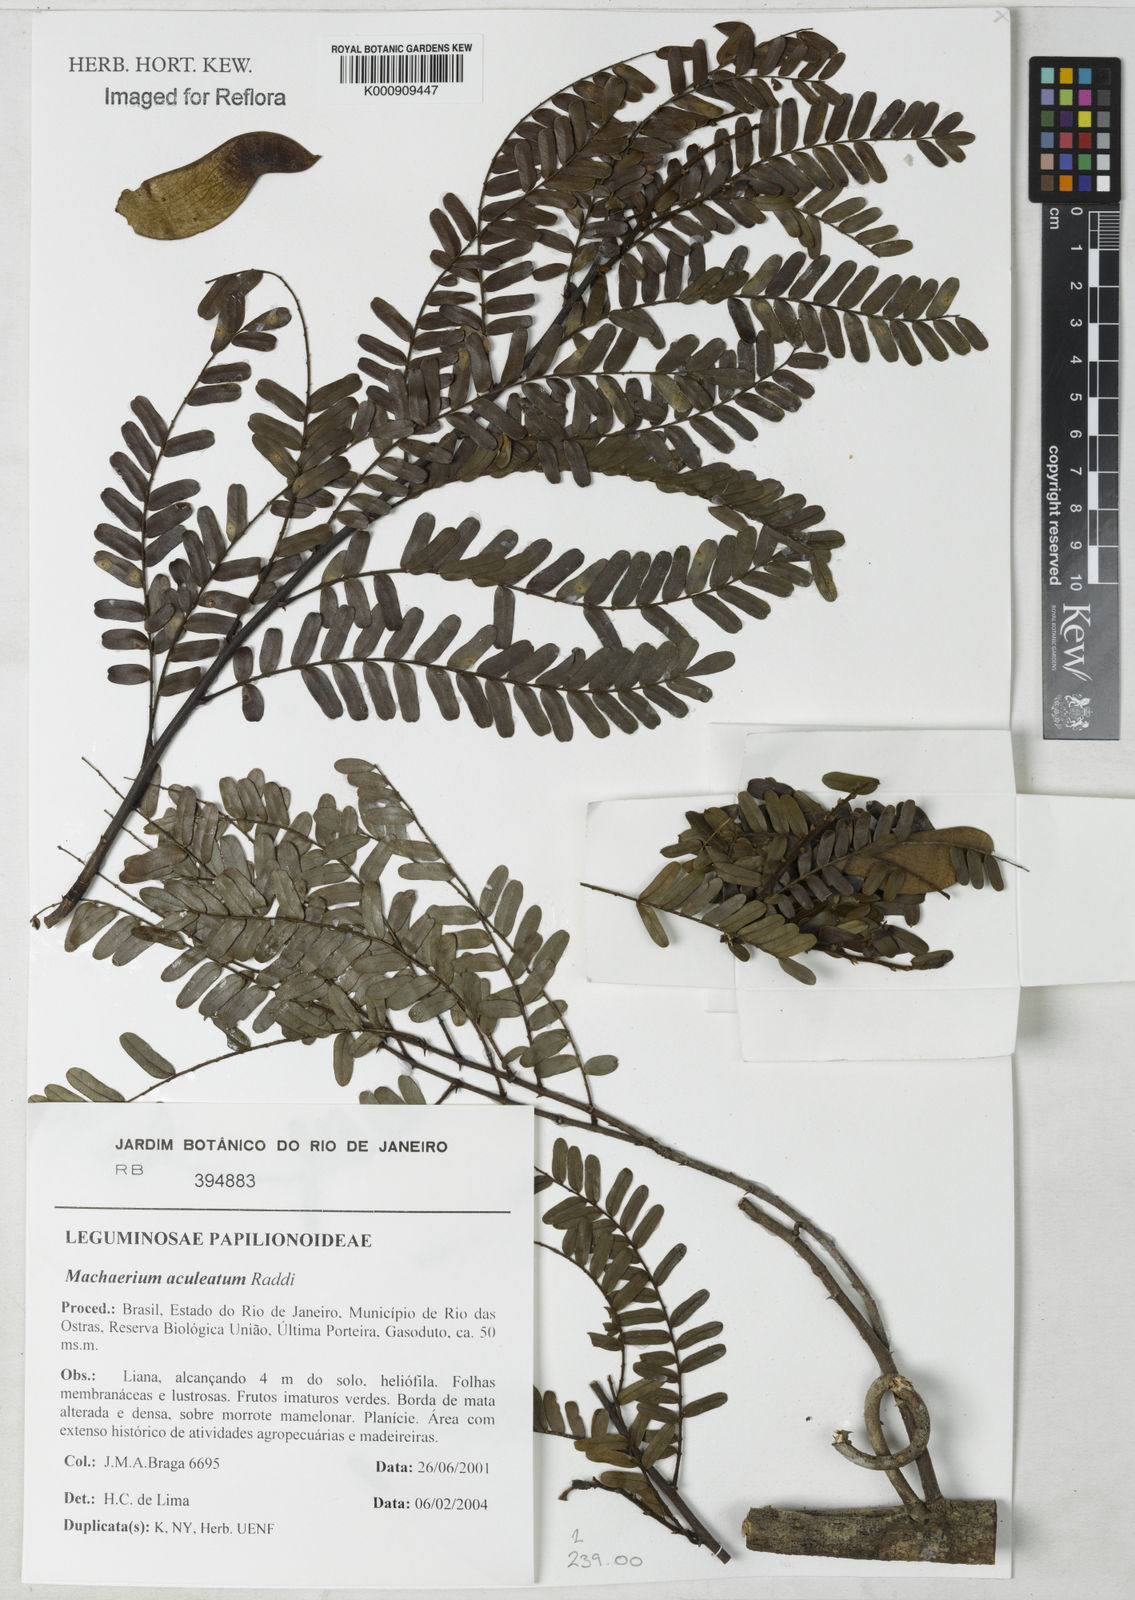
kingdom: Plantae
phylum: Tracheophyta
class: Magnoliopsida
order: Fabales
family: Fabaceae
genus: Machaerium
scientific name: Machaerium aculeatum
